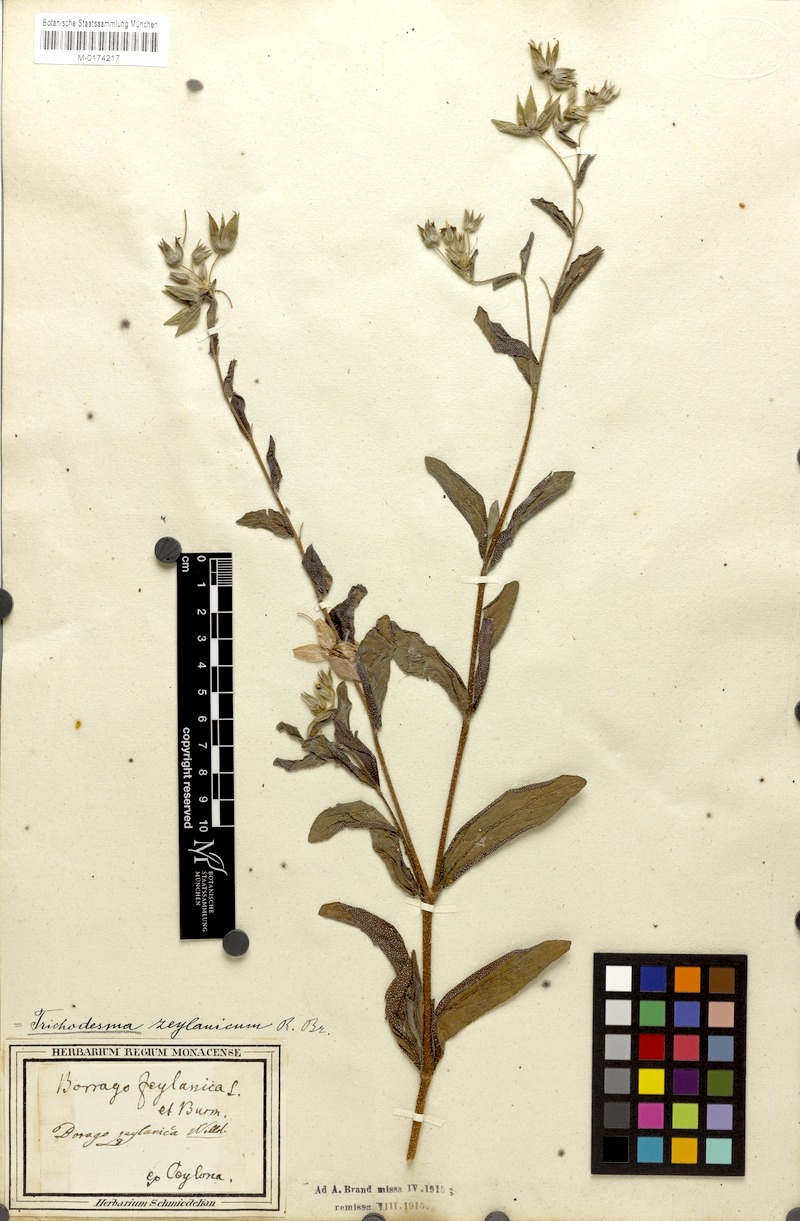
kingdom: Plantae
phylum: Tracheophyta
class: Magnoliopsida
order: Boraginales
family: Boraginaceae
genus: Trichodesma
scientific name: Trichodesma zeylanicum
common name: Camelbush
